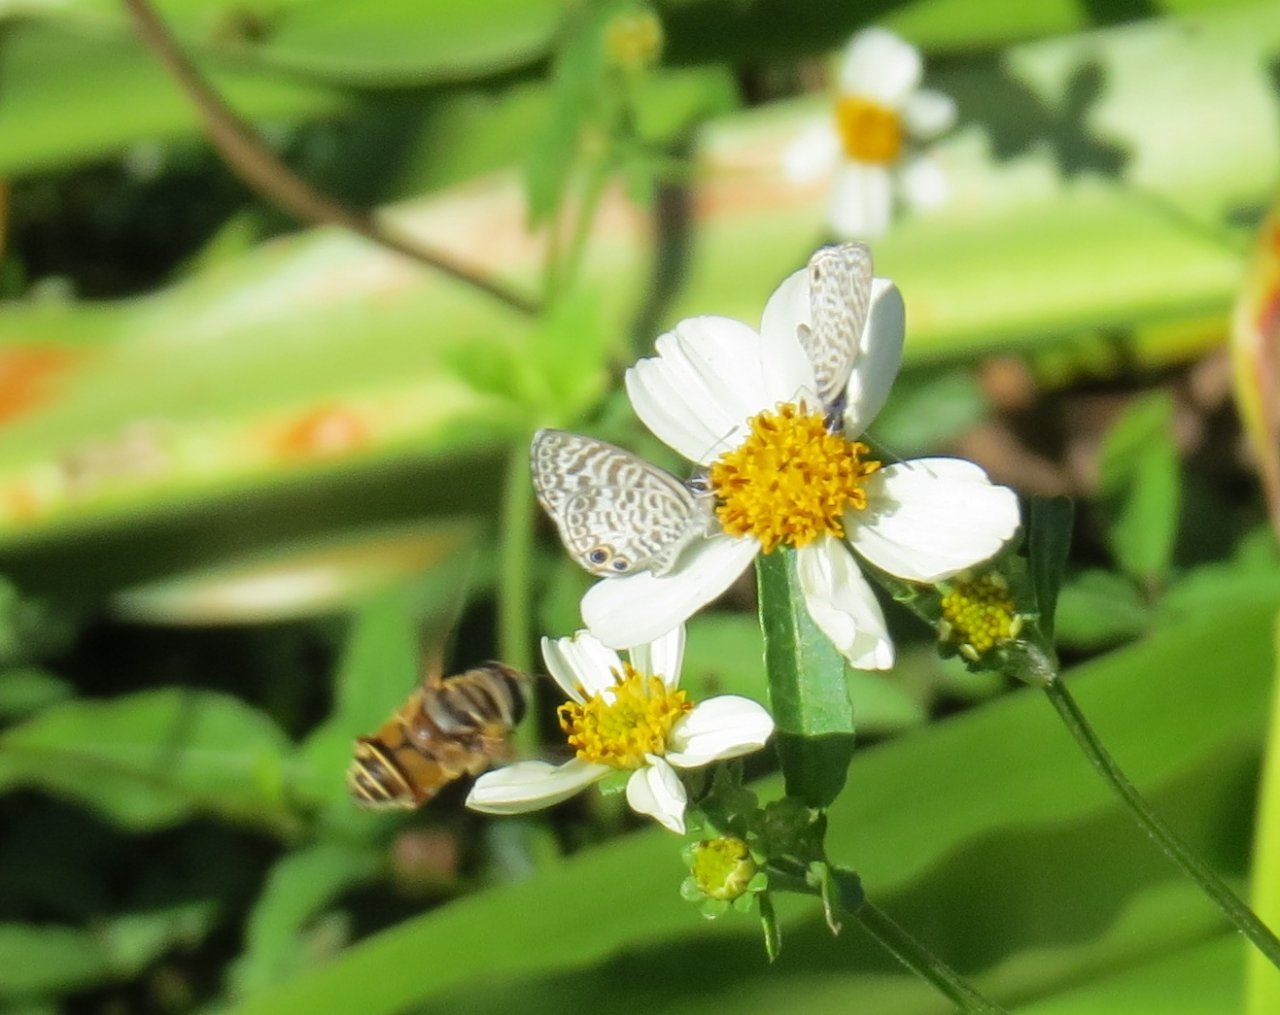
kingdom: Animalia
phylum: Arthropoda
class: Insecta
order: Lepidoptera
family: Lycaenidae
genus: Leptotes
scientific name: Leptotes cassius
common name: Cassius Blue
